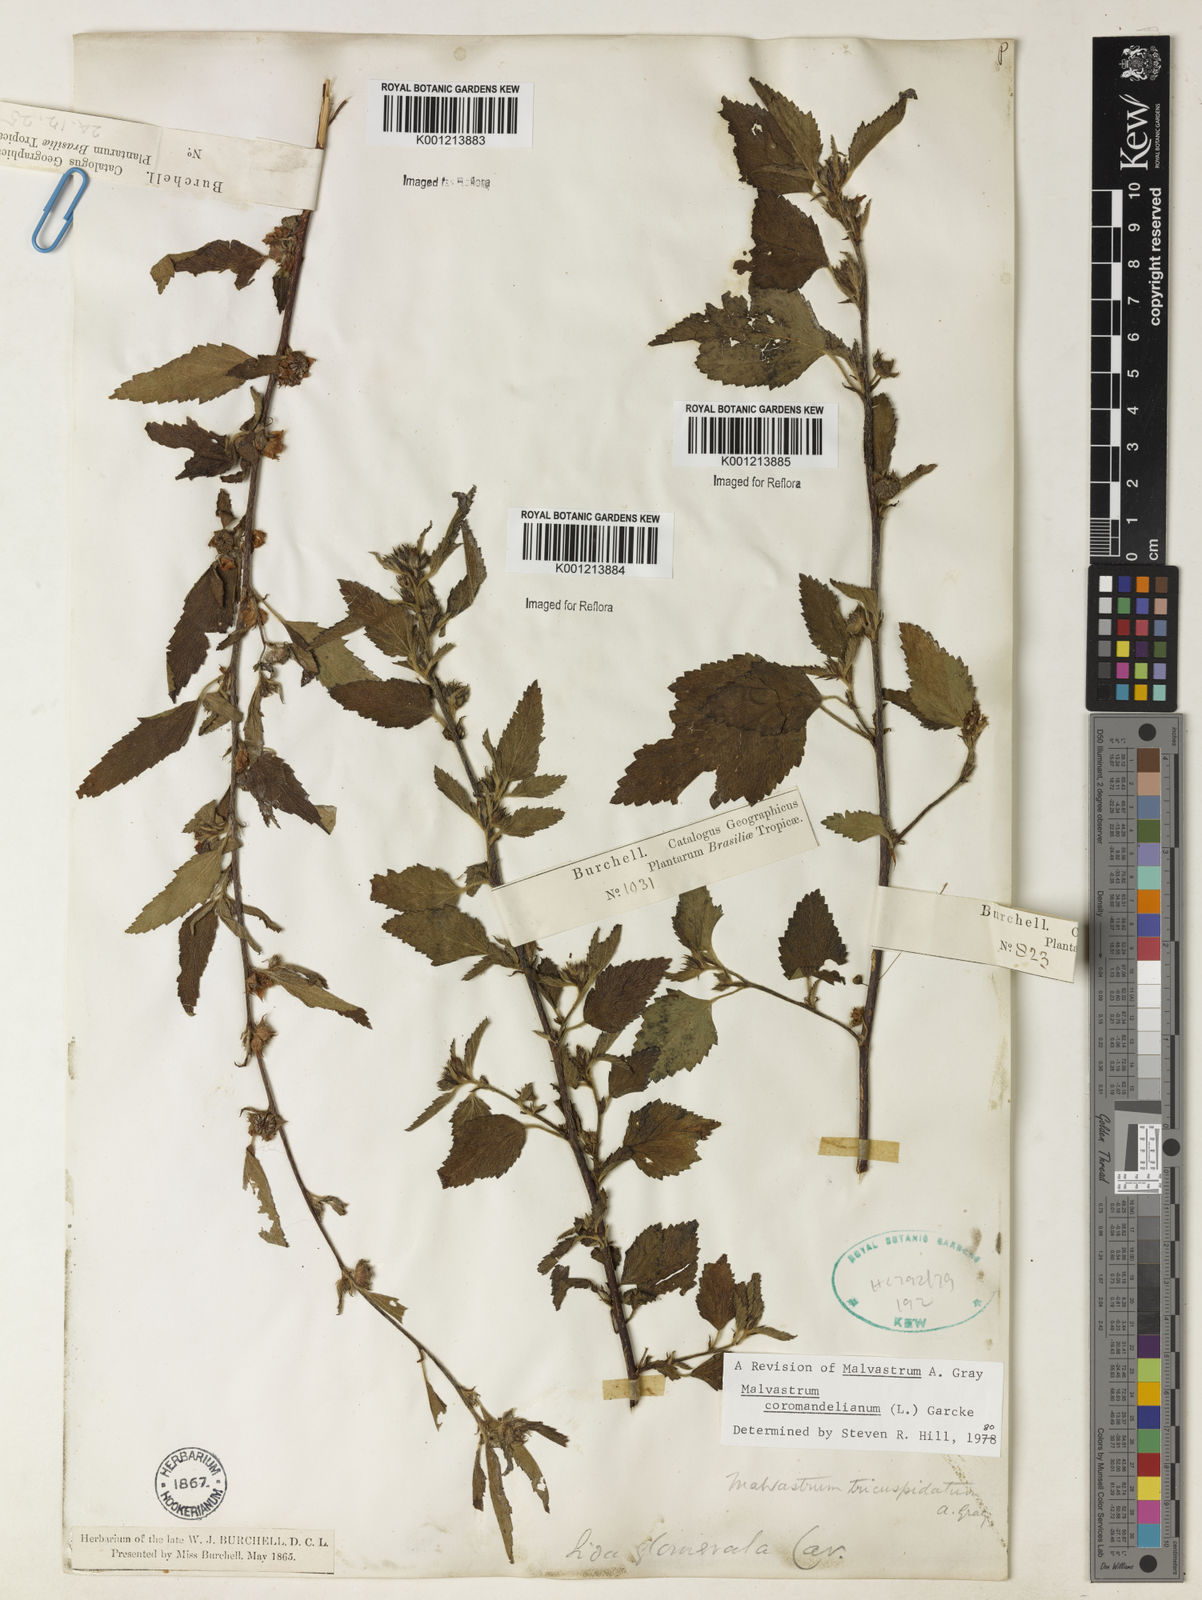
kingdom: Plantae
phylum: Tracheophyta
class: Magnoliopsida
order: Malvales
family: Malvaceae
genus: Malvastrum
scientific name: Malvastrum coromandelianum
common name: Threelobe false mallow
